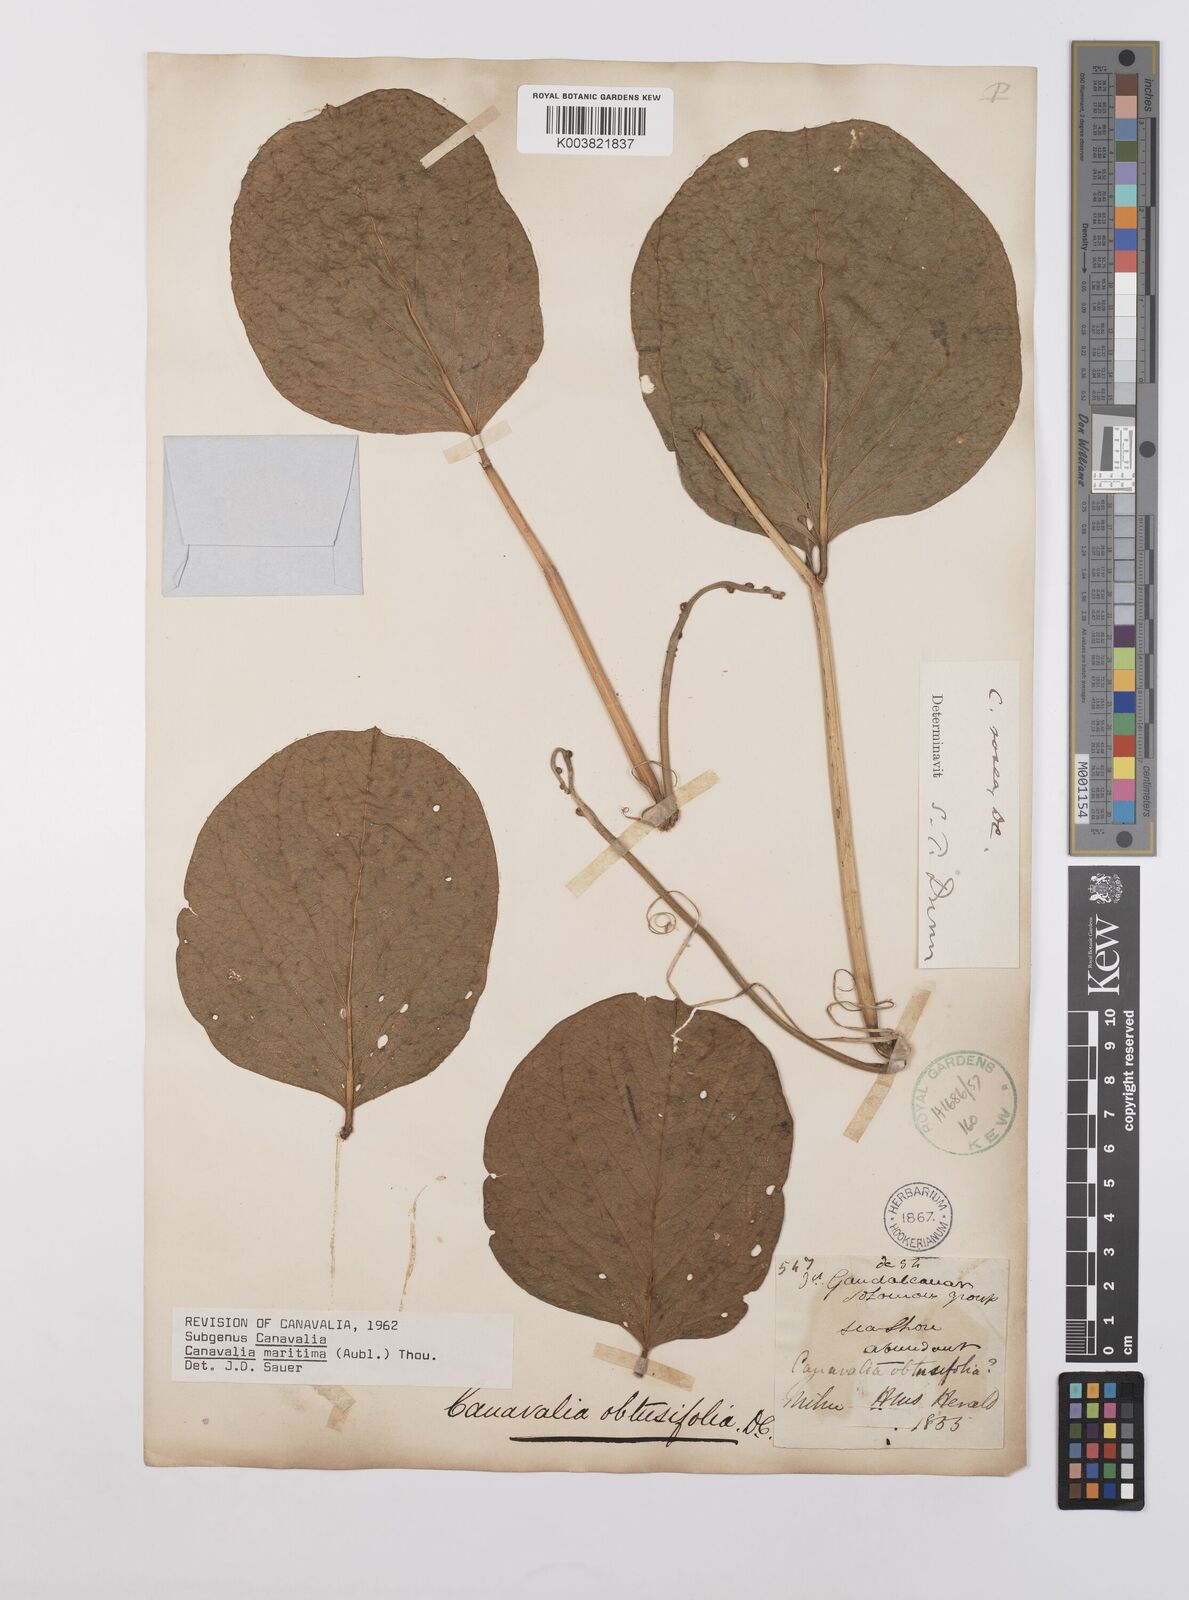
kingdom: Plantae
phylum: Tracheophyta
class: Magnoliopsida
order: Fabales
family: Fabaceae
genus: Canavalia
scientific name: Canavalia rosea
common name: Beach-bean
